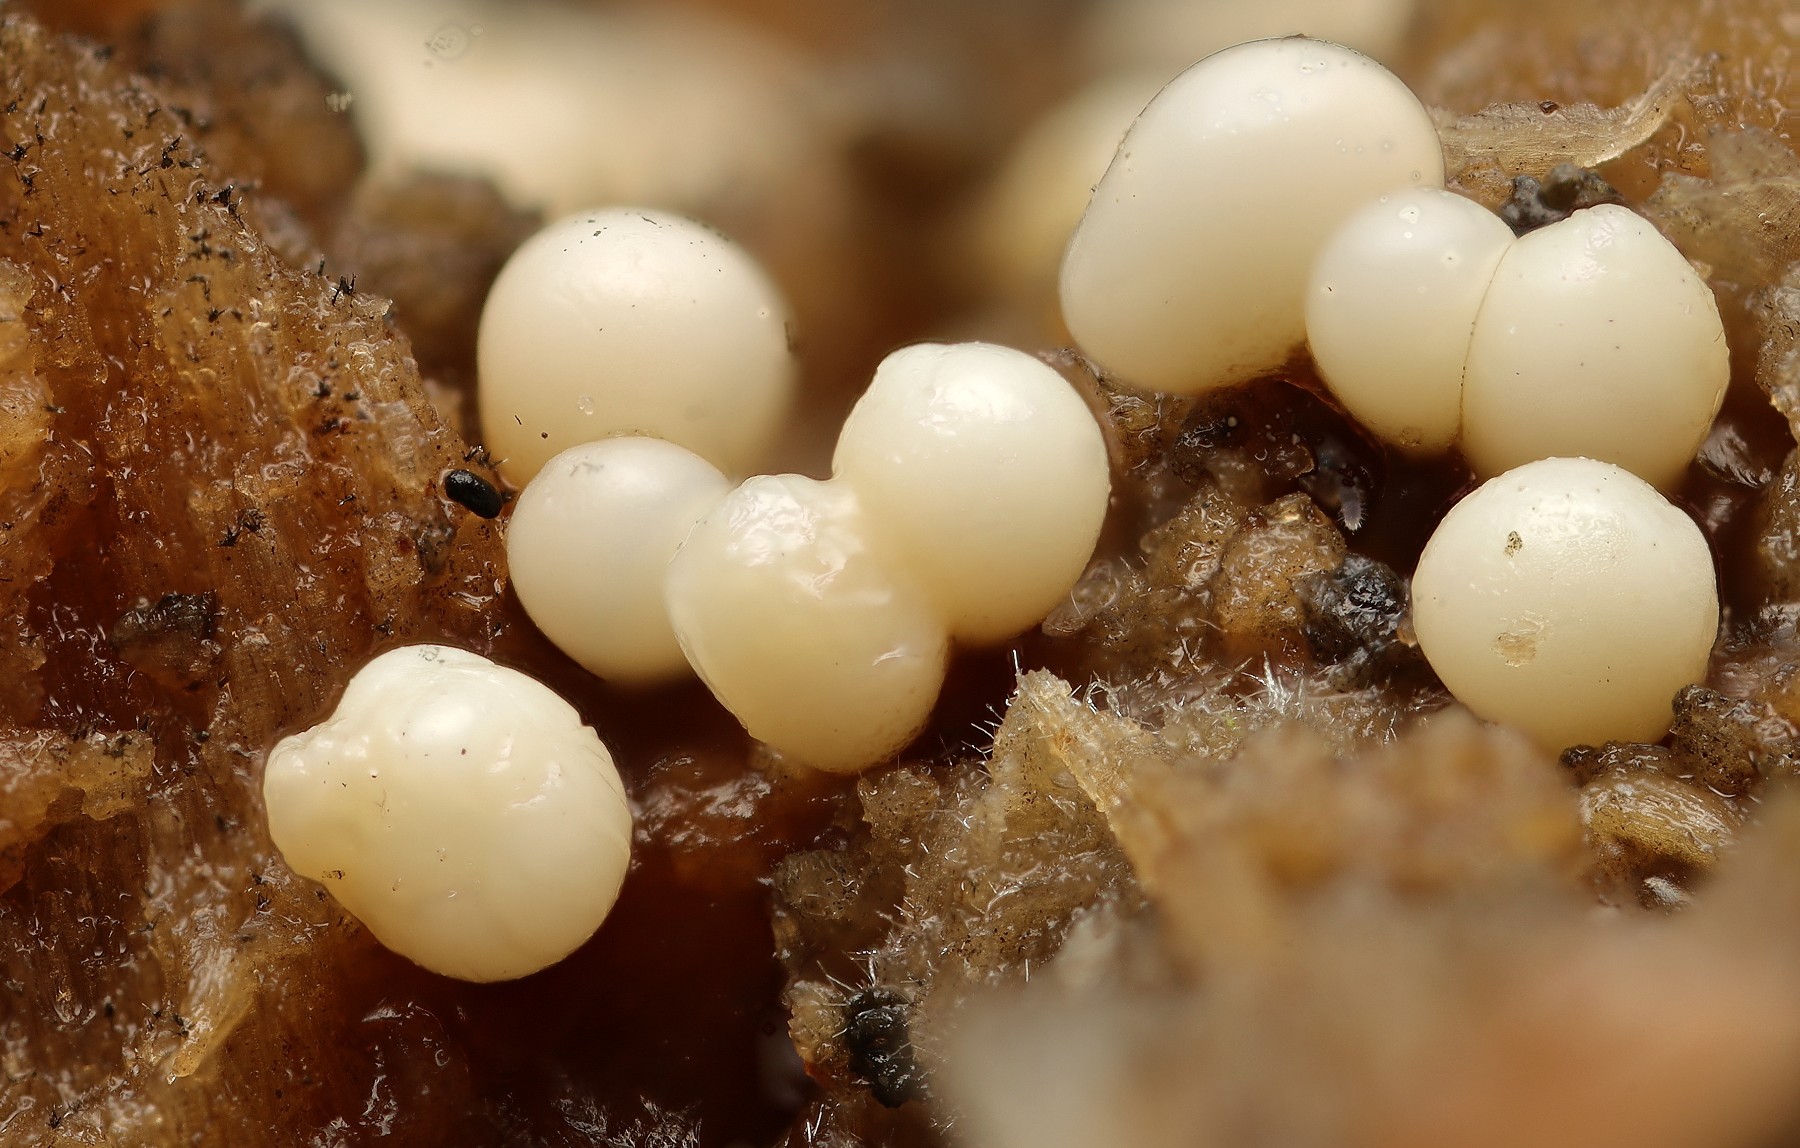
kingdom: Protozoa
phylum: Mycetozoa
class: Myxomycetes
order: Trichiales
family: Trichiaceae
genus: Trichia
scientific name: Trichia varia
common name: foranderlig hårbold
